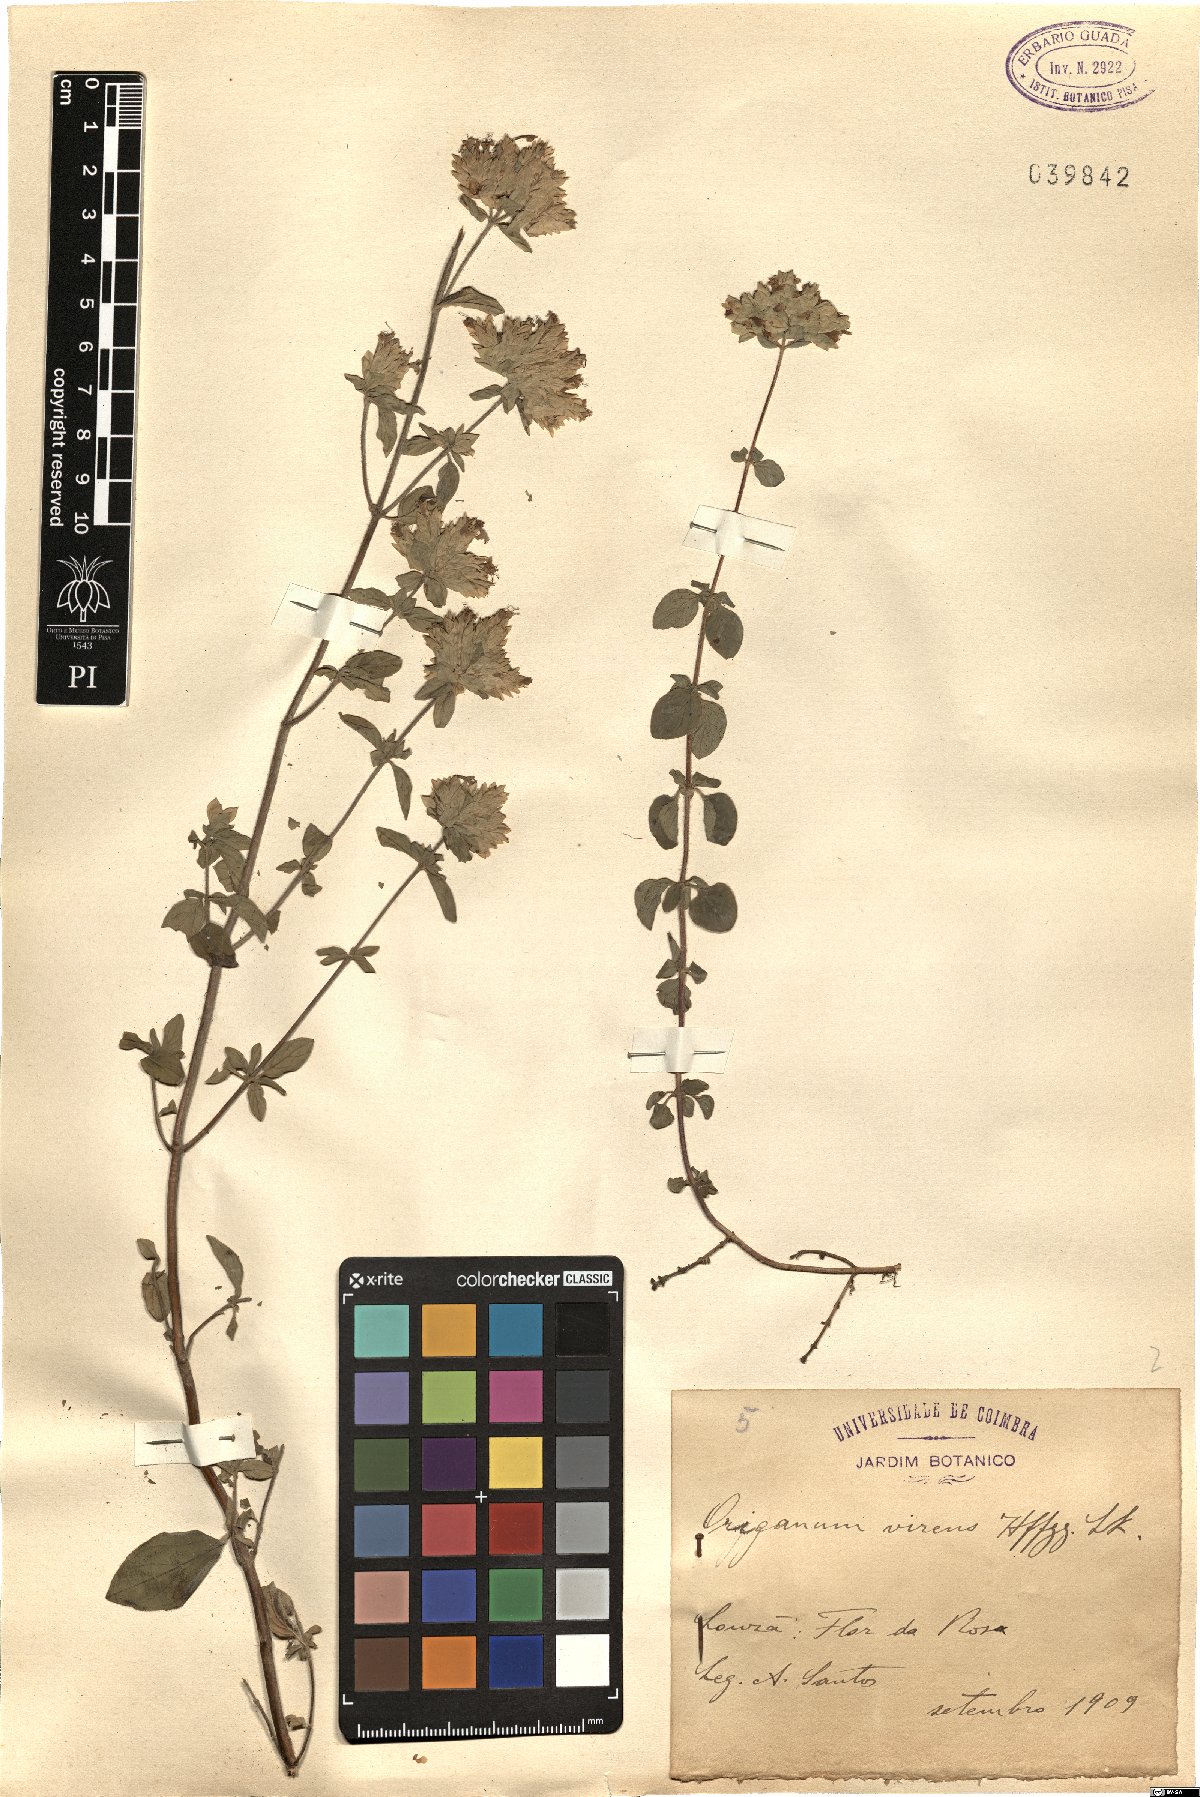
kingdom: Plantae
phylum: Tracheophyta
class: Magnoliopsida
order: Lamiales
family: Lamiaceae
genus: Origanum
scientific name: Origanum vulgare
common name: Wild marjoram
